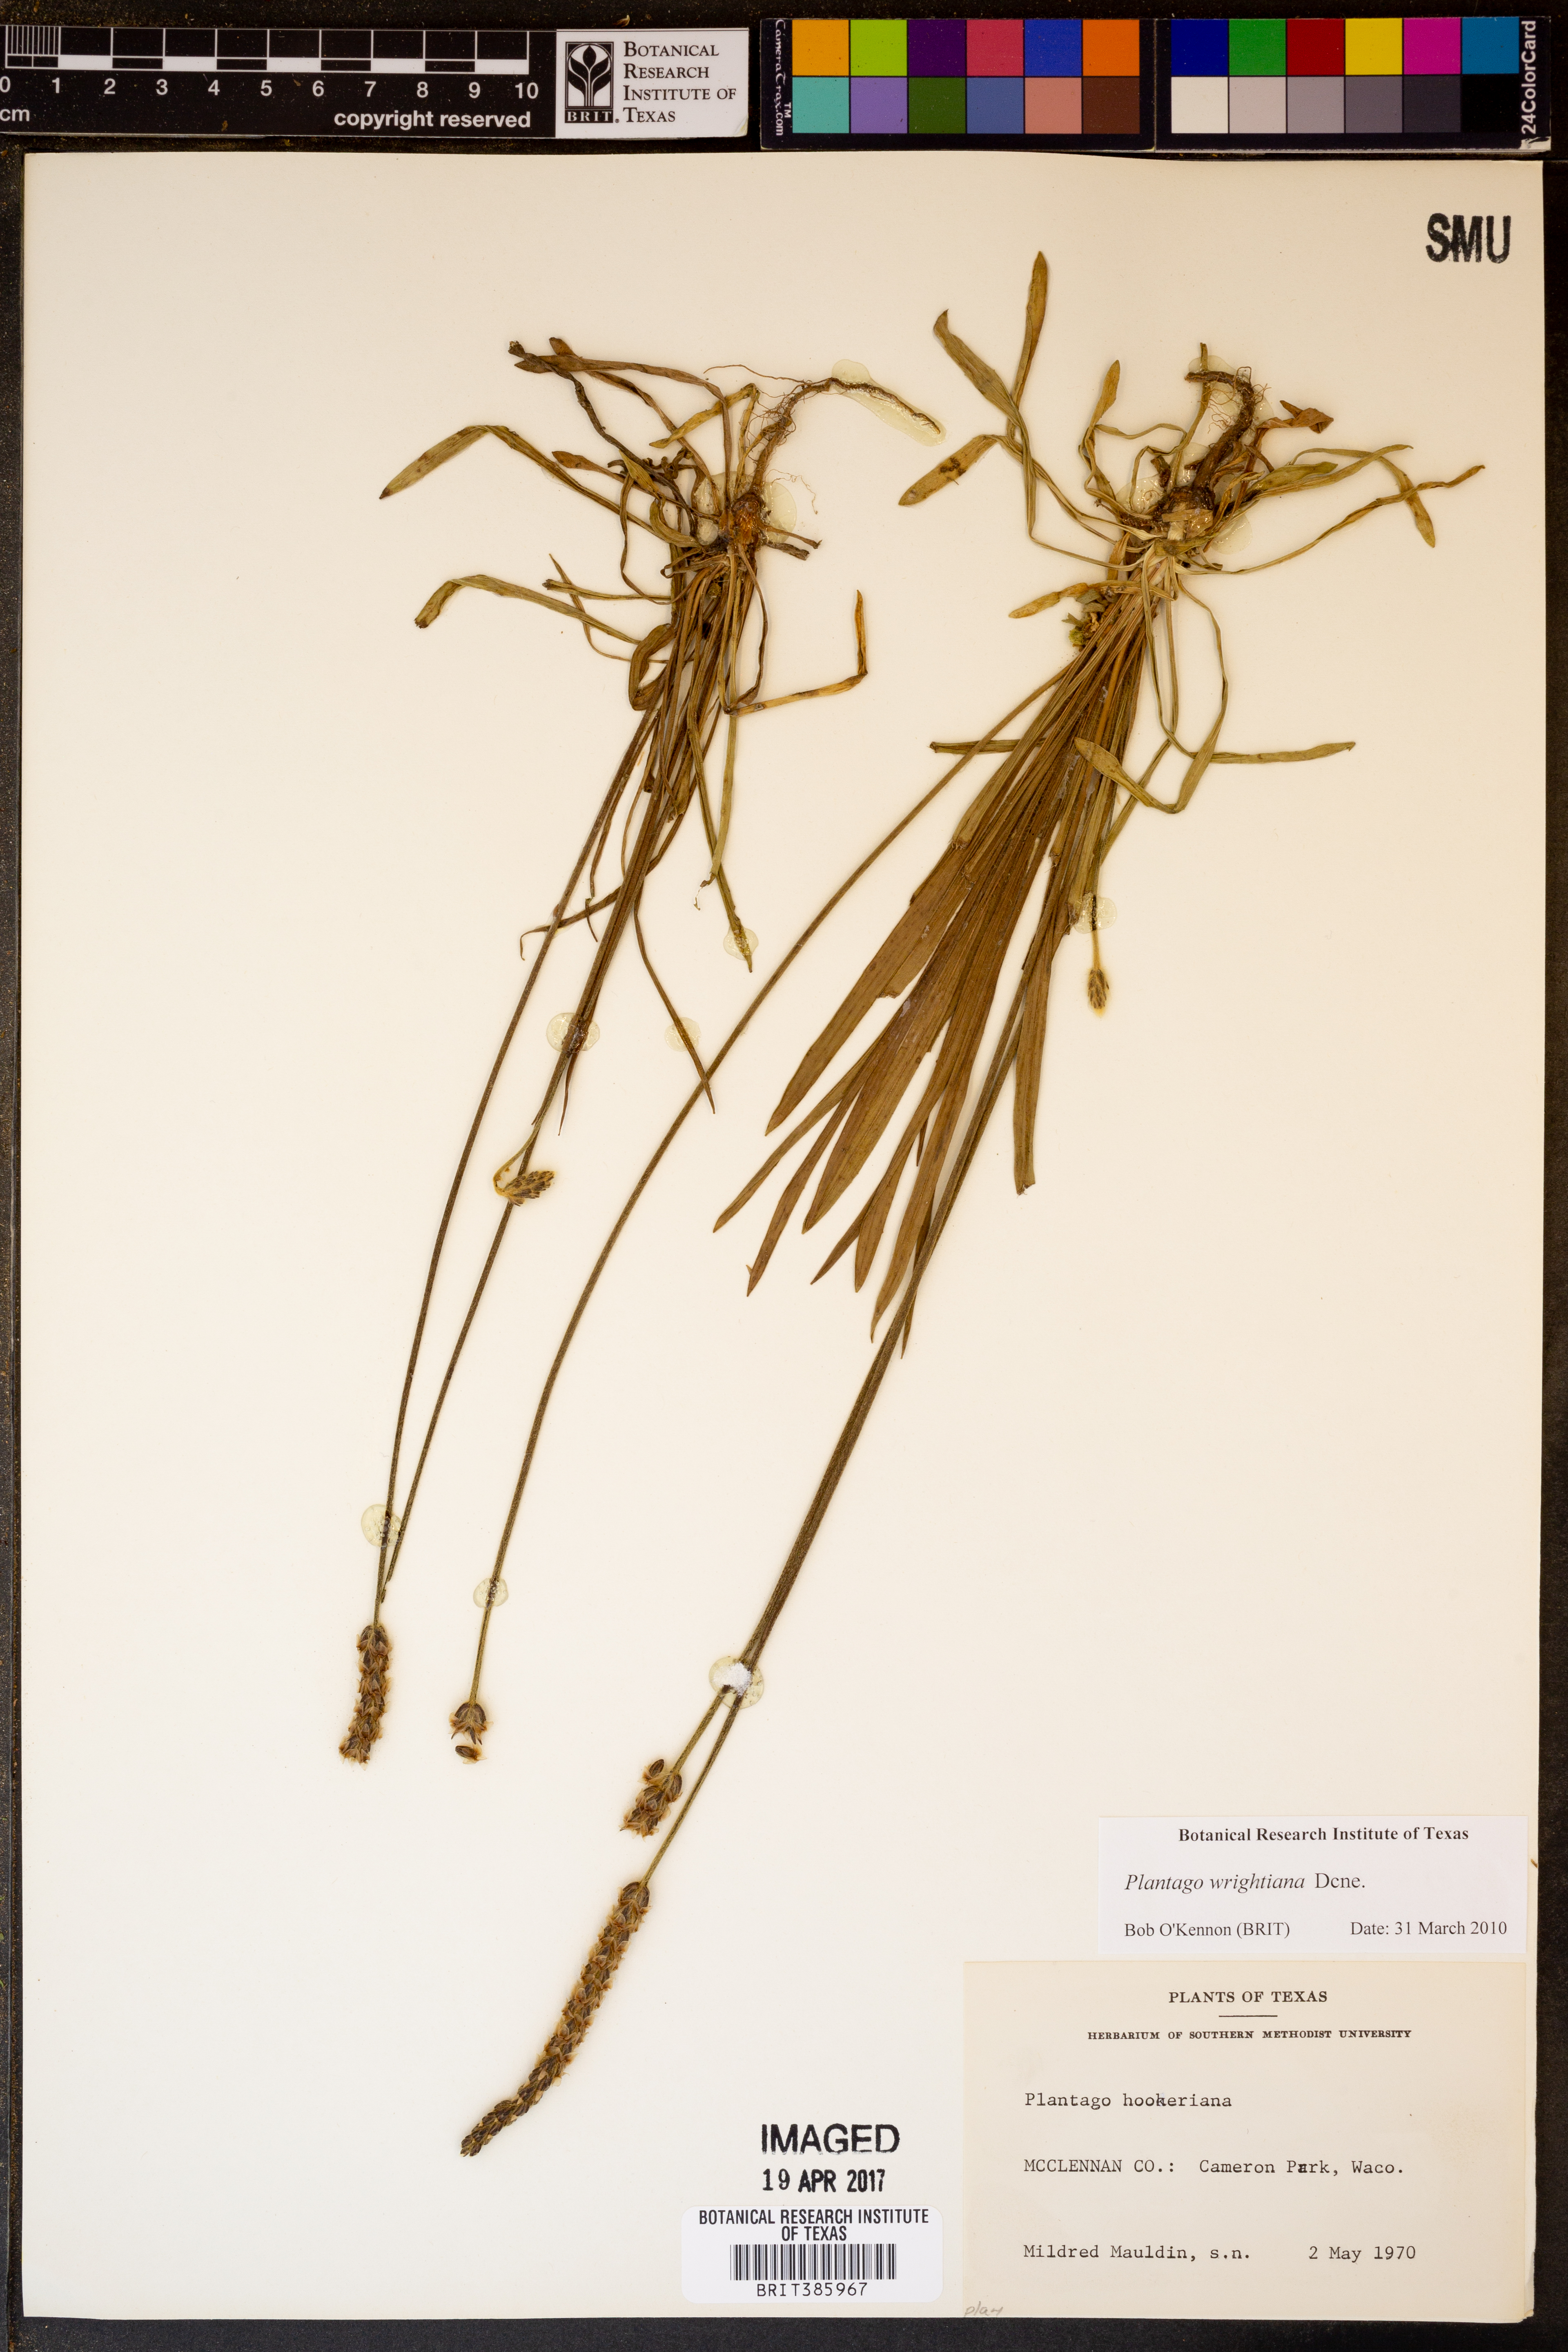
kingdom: Plantae
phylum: Tracheophyta
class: Magnoliopsida
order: Lamiales
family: Plantaginaceae
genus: Plantago
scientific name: Plantago wrightiana
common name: Wright's plantain
